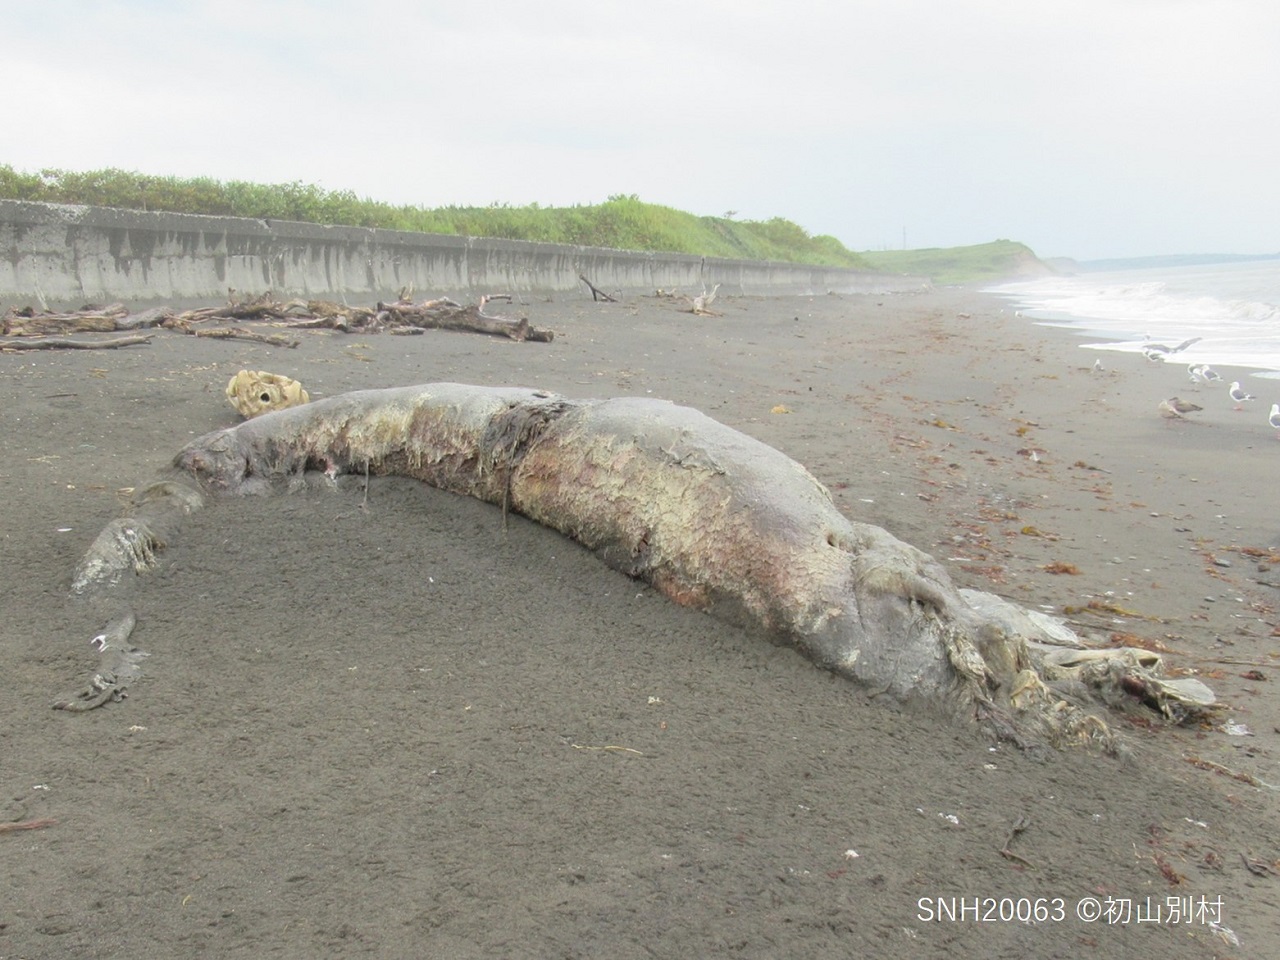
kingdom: Animalia
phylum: Chordata
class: Mammalia
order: Cetacea
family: Hyperoodontidae
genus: Berardius
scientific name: Berardius
